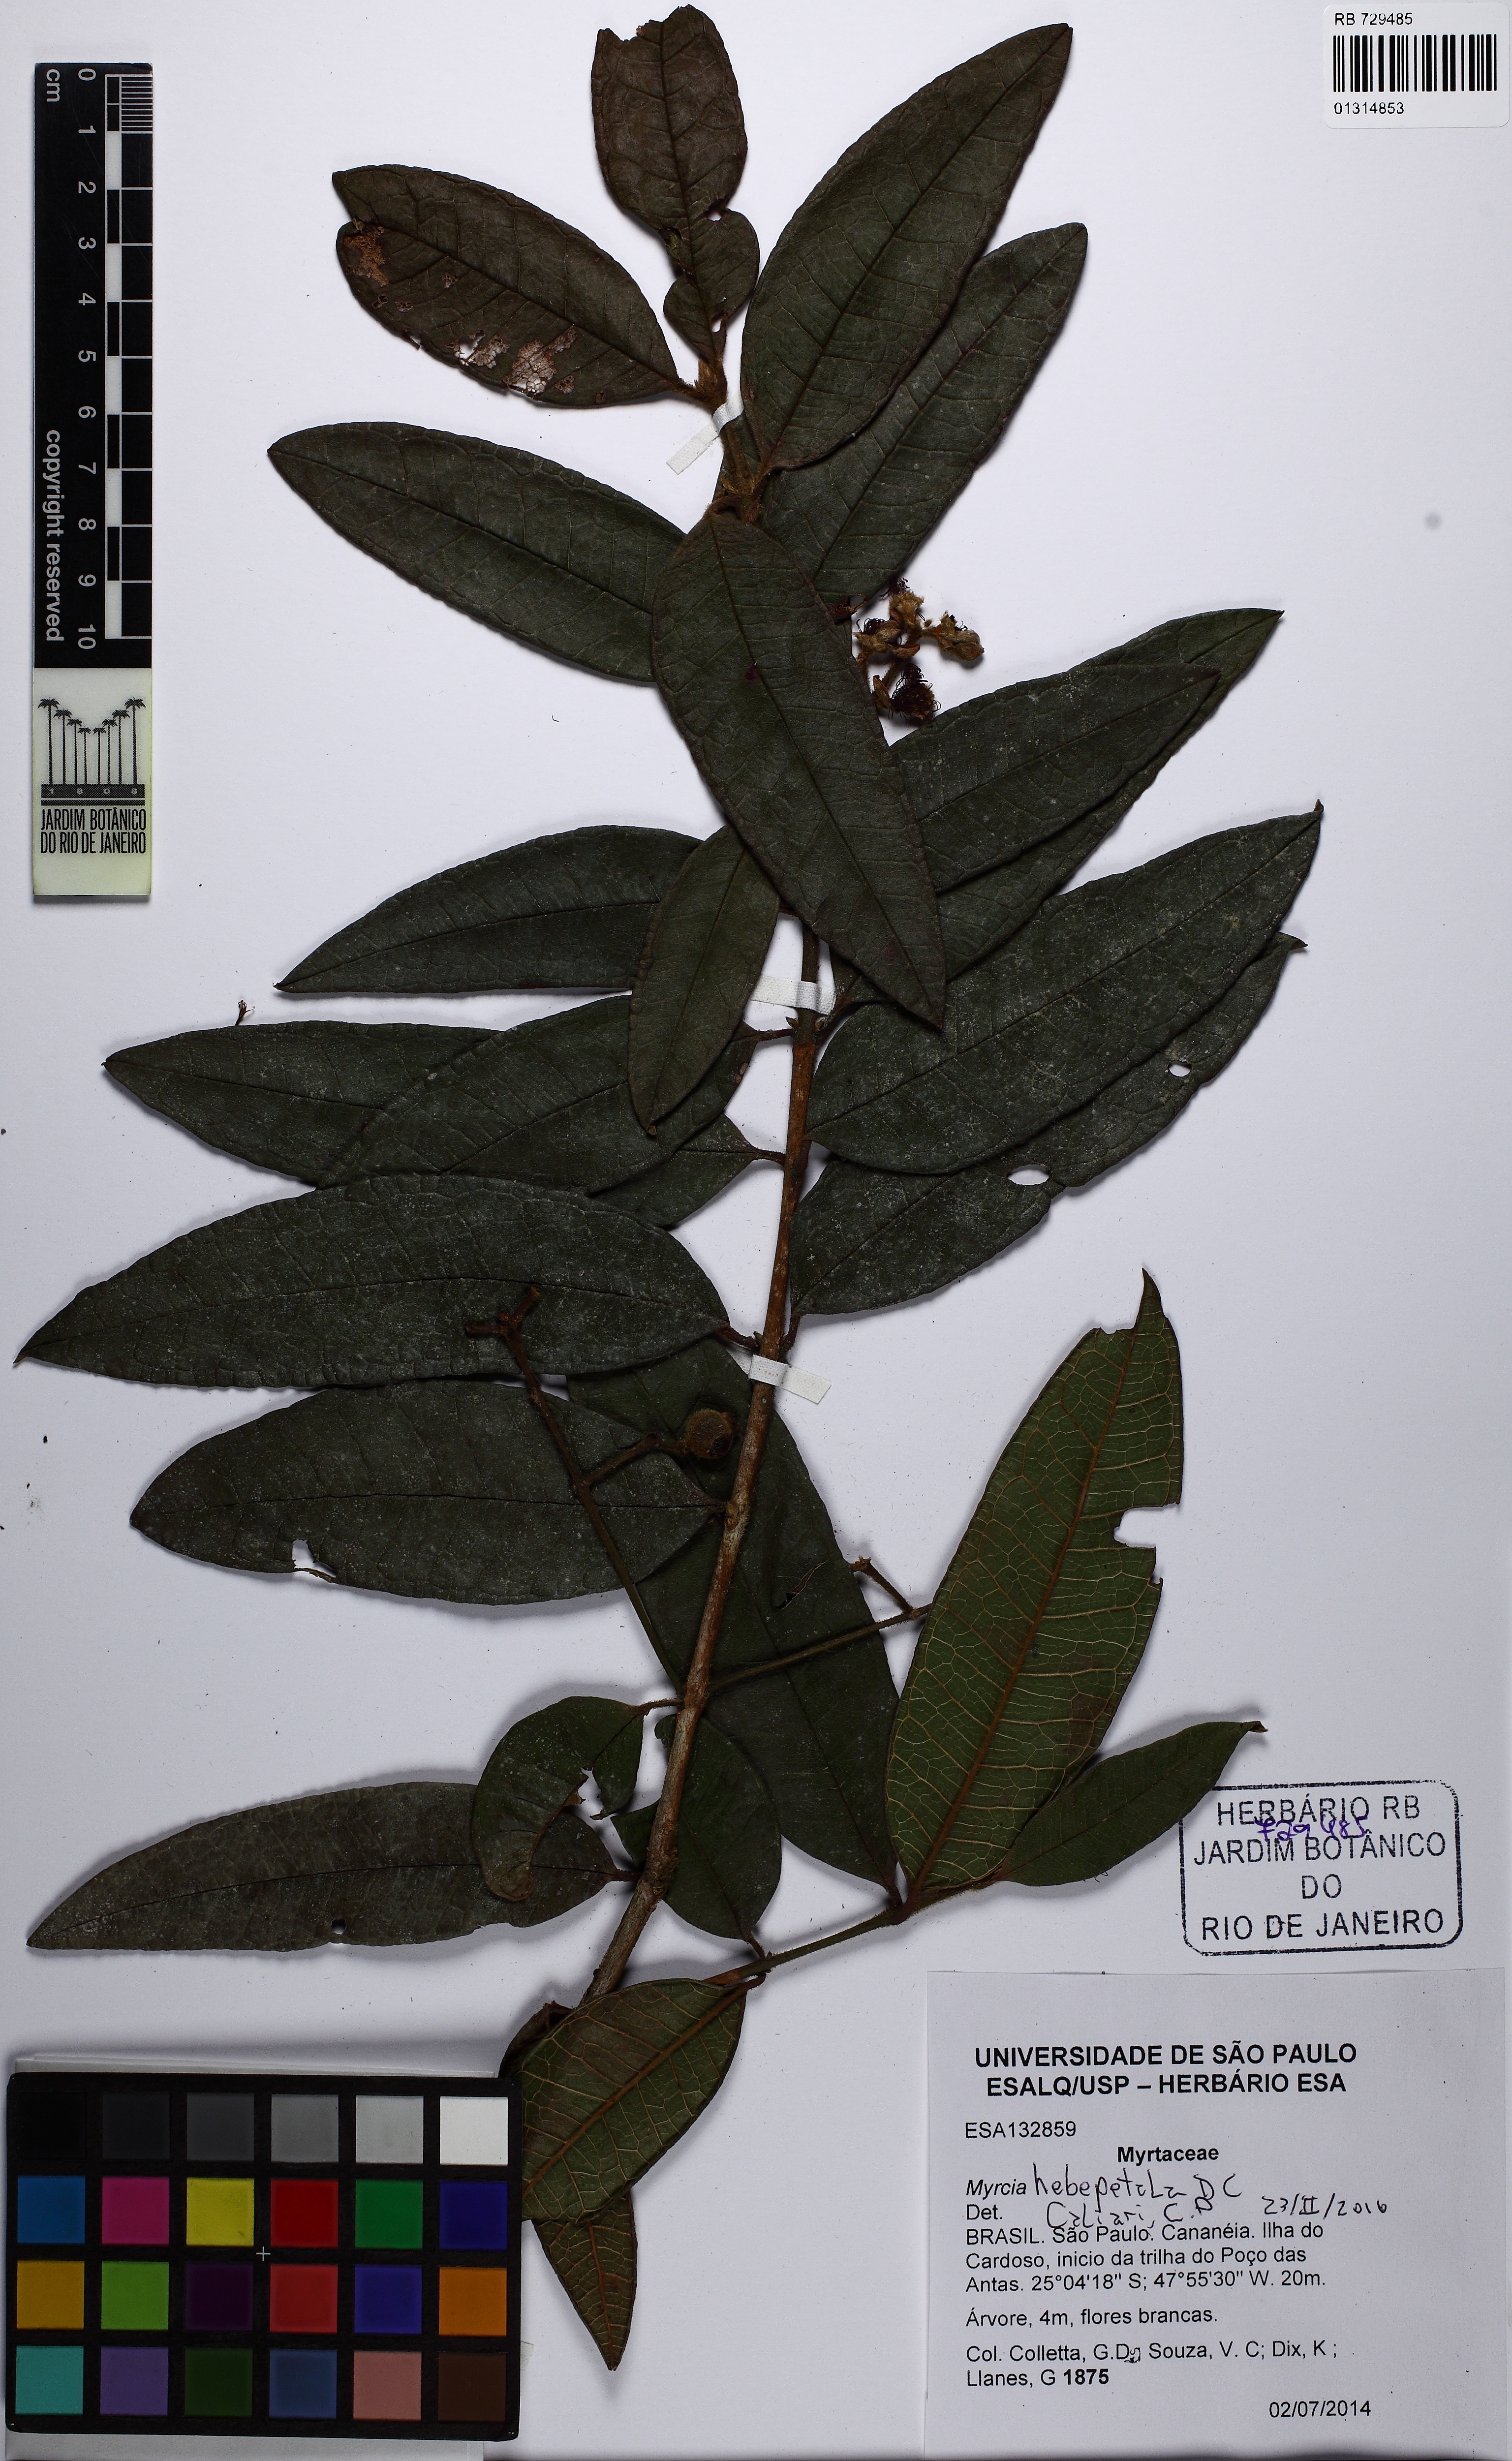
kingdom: Plantae
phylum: Tracheophyta
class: Magnoliopsida
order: Myrtales
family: Myrtaceae
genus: Myrcia
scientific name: Myrcia hebepetala
